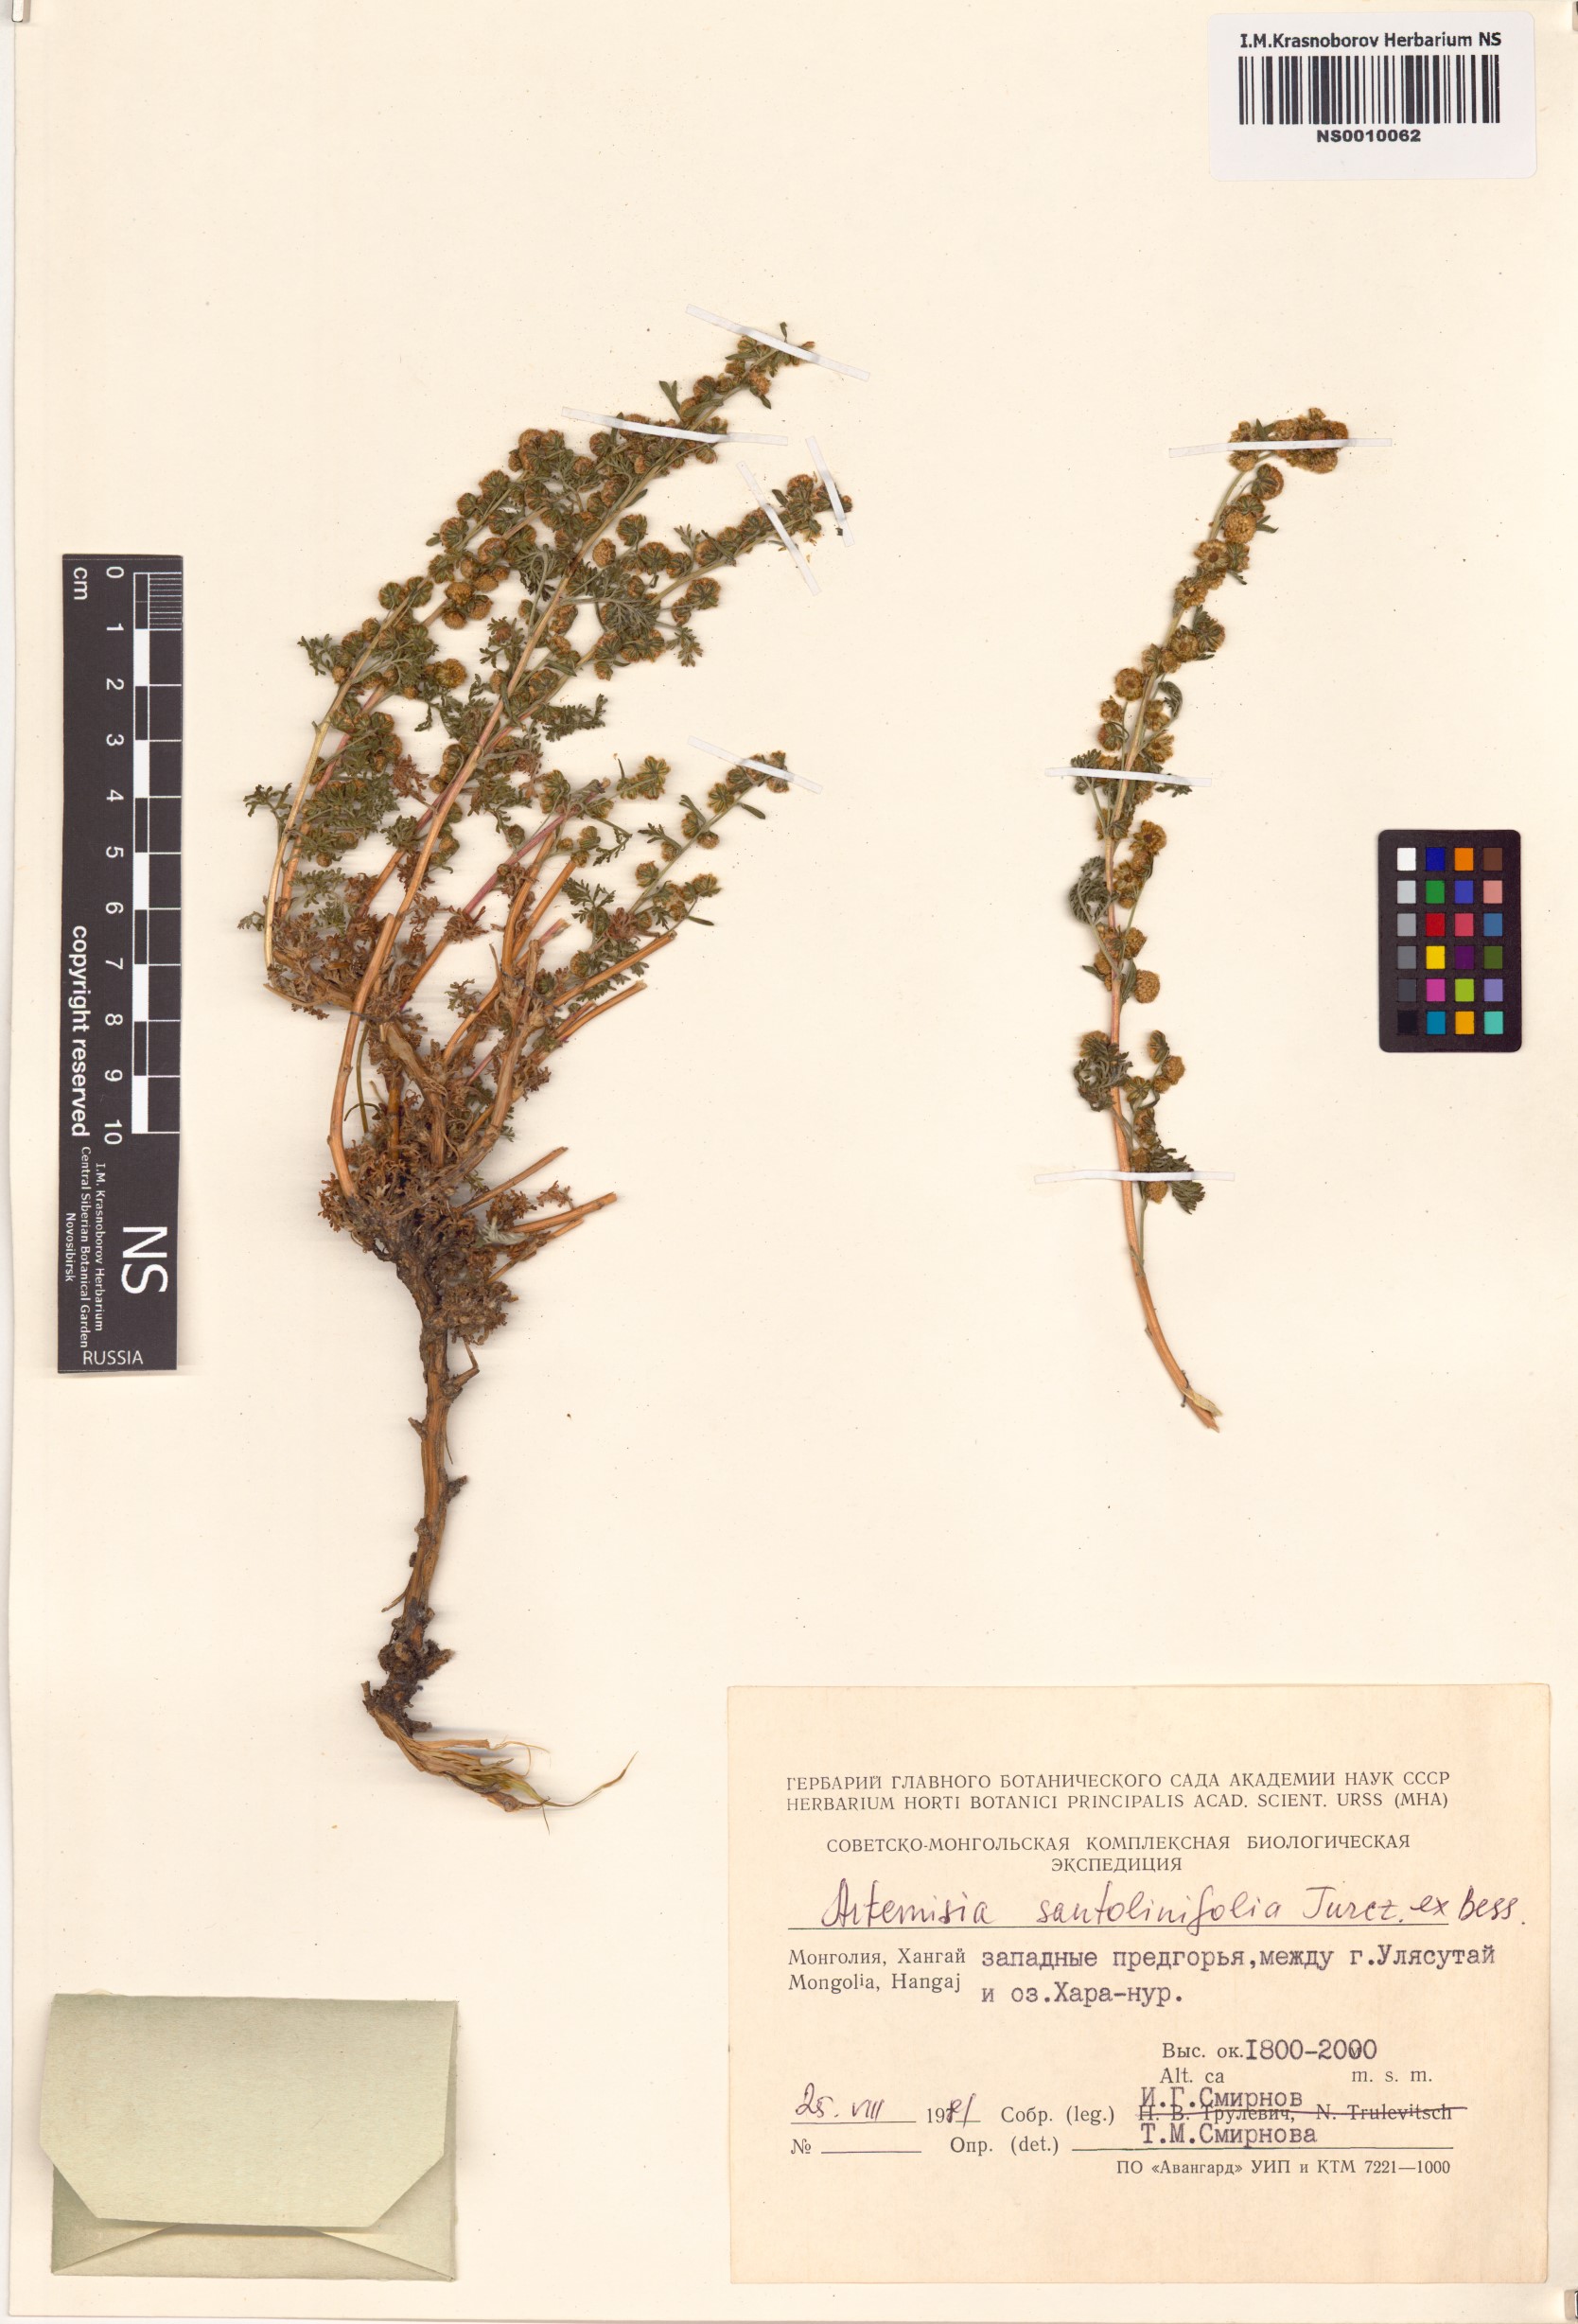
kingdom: Plantae
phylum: Tracheophyta
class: Magnoliopsida
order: Asterales
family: Asteraceae
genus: Artemisia
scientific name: Artemisia stechmanniana
